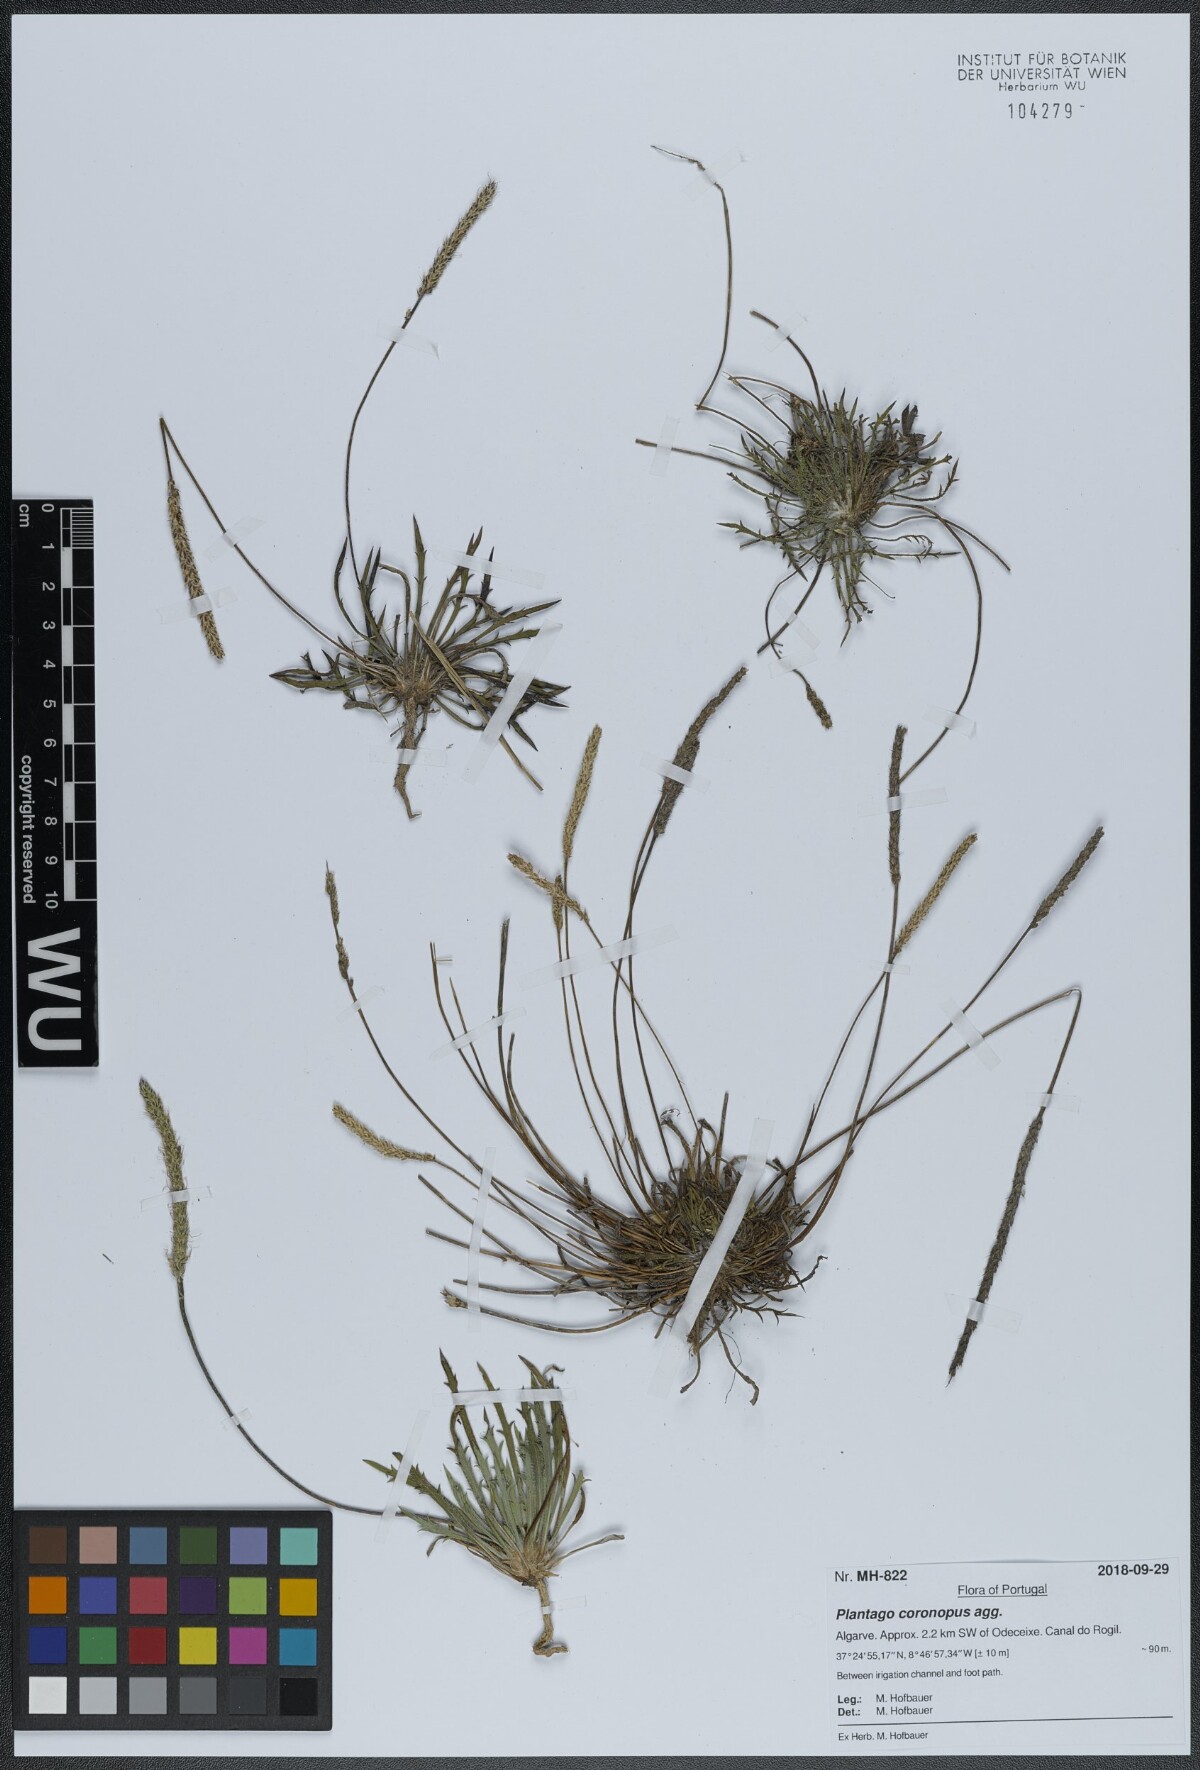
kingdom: Plantae
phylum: Tracheophyta
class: Magnoliopsida
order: Lamiales
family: Plantaginaceae
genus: Plantago
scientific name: Plantago coronopus
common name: Buck's-horn plantain
